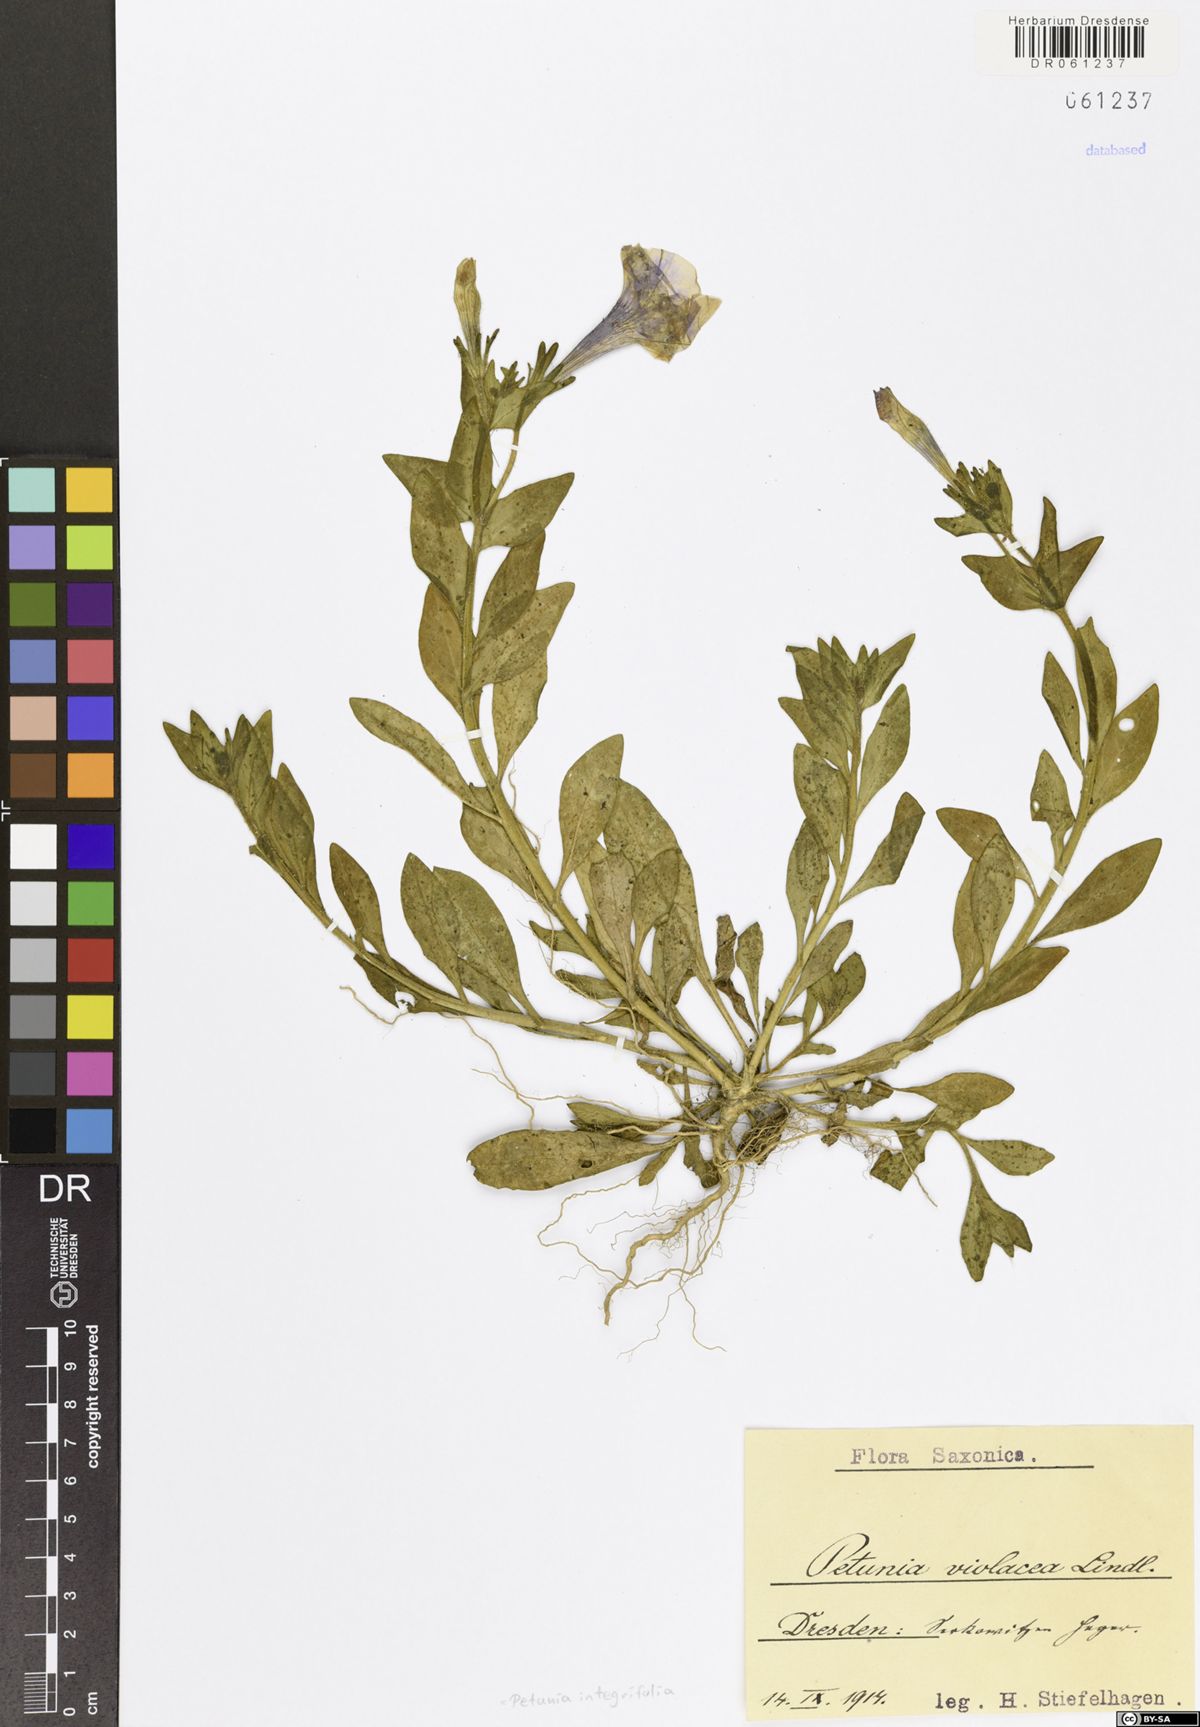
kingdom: Plantae
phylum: Tracheophyta
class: Magnoliopsida
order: Solanales
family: Solanaceae
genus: Petunia
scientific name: Petunia integrifolia
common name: Violet-flower petunia
